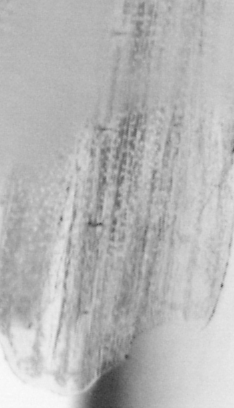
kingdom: Animalia
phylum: Chordata
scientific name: Chordata
